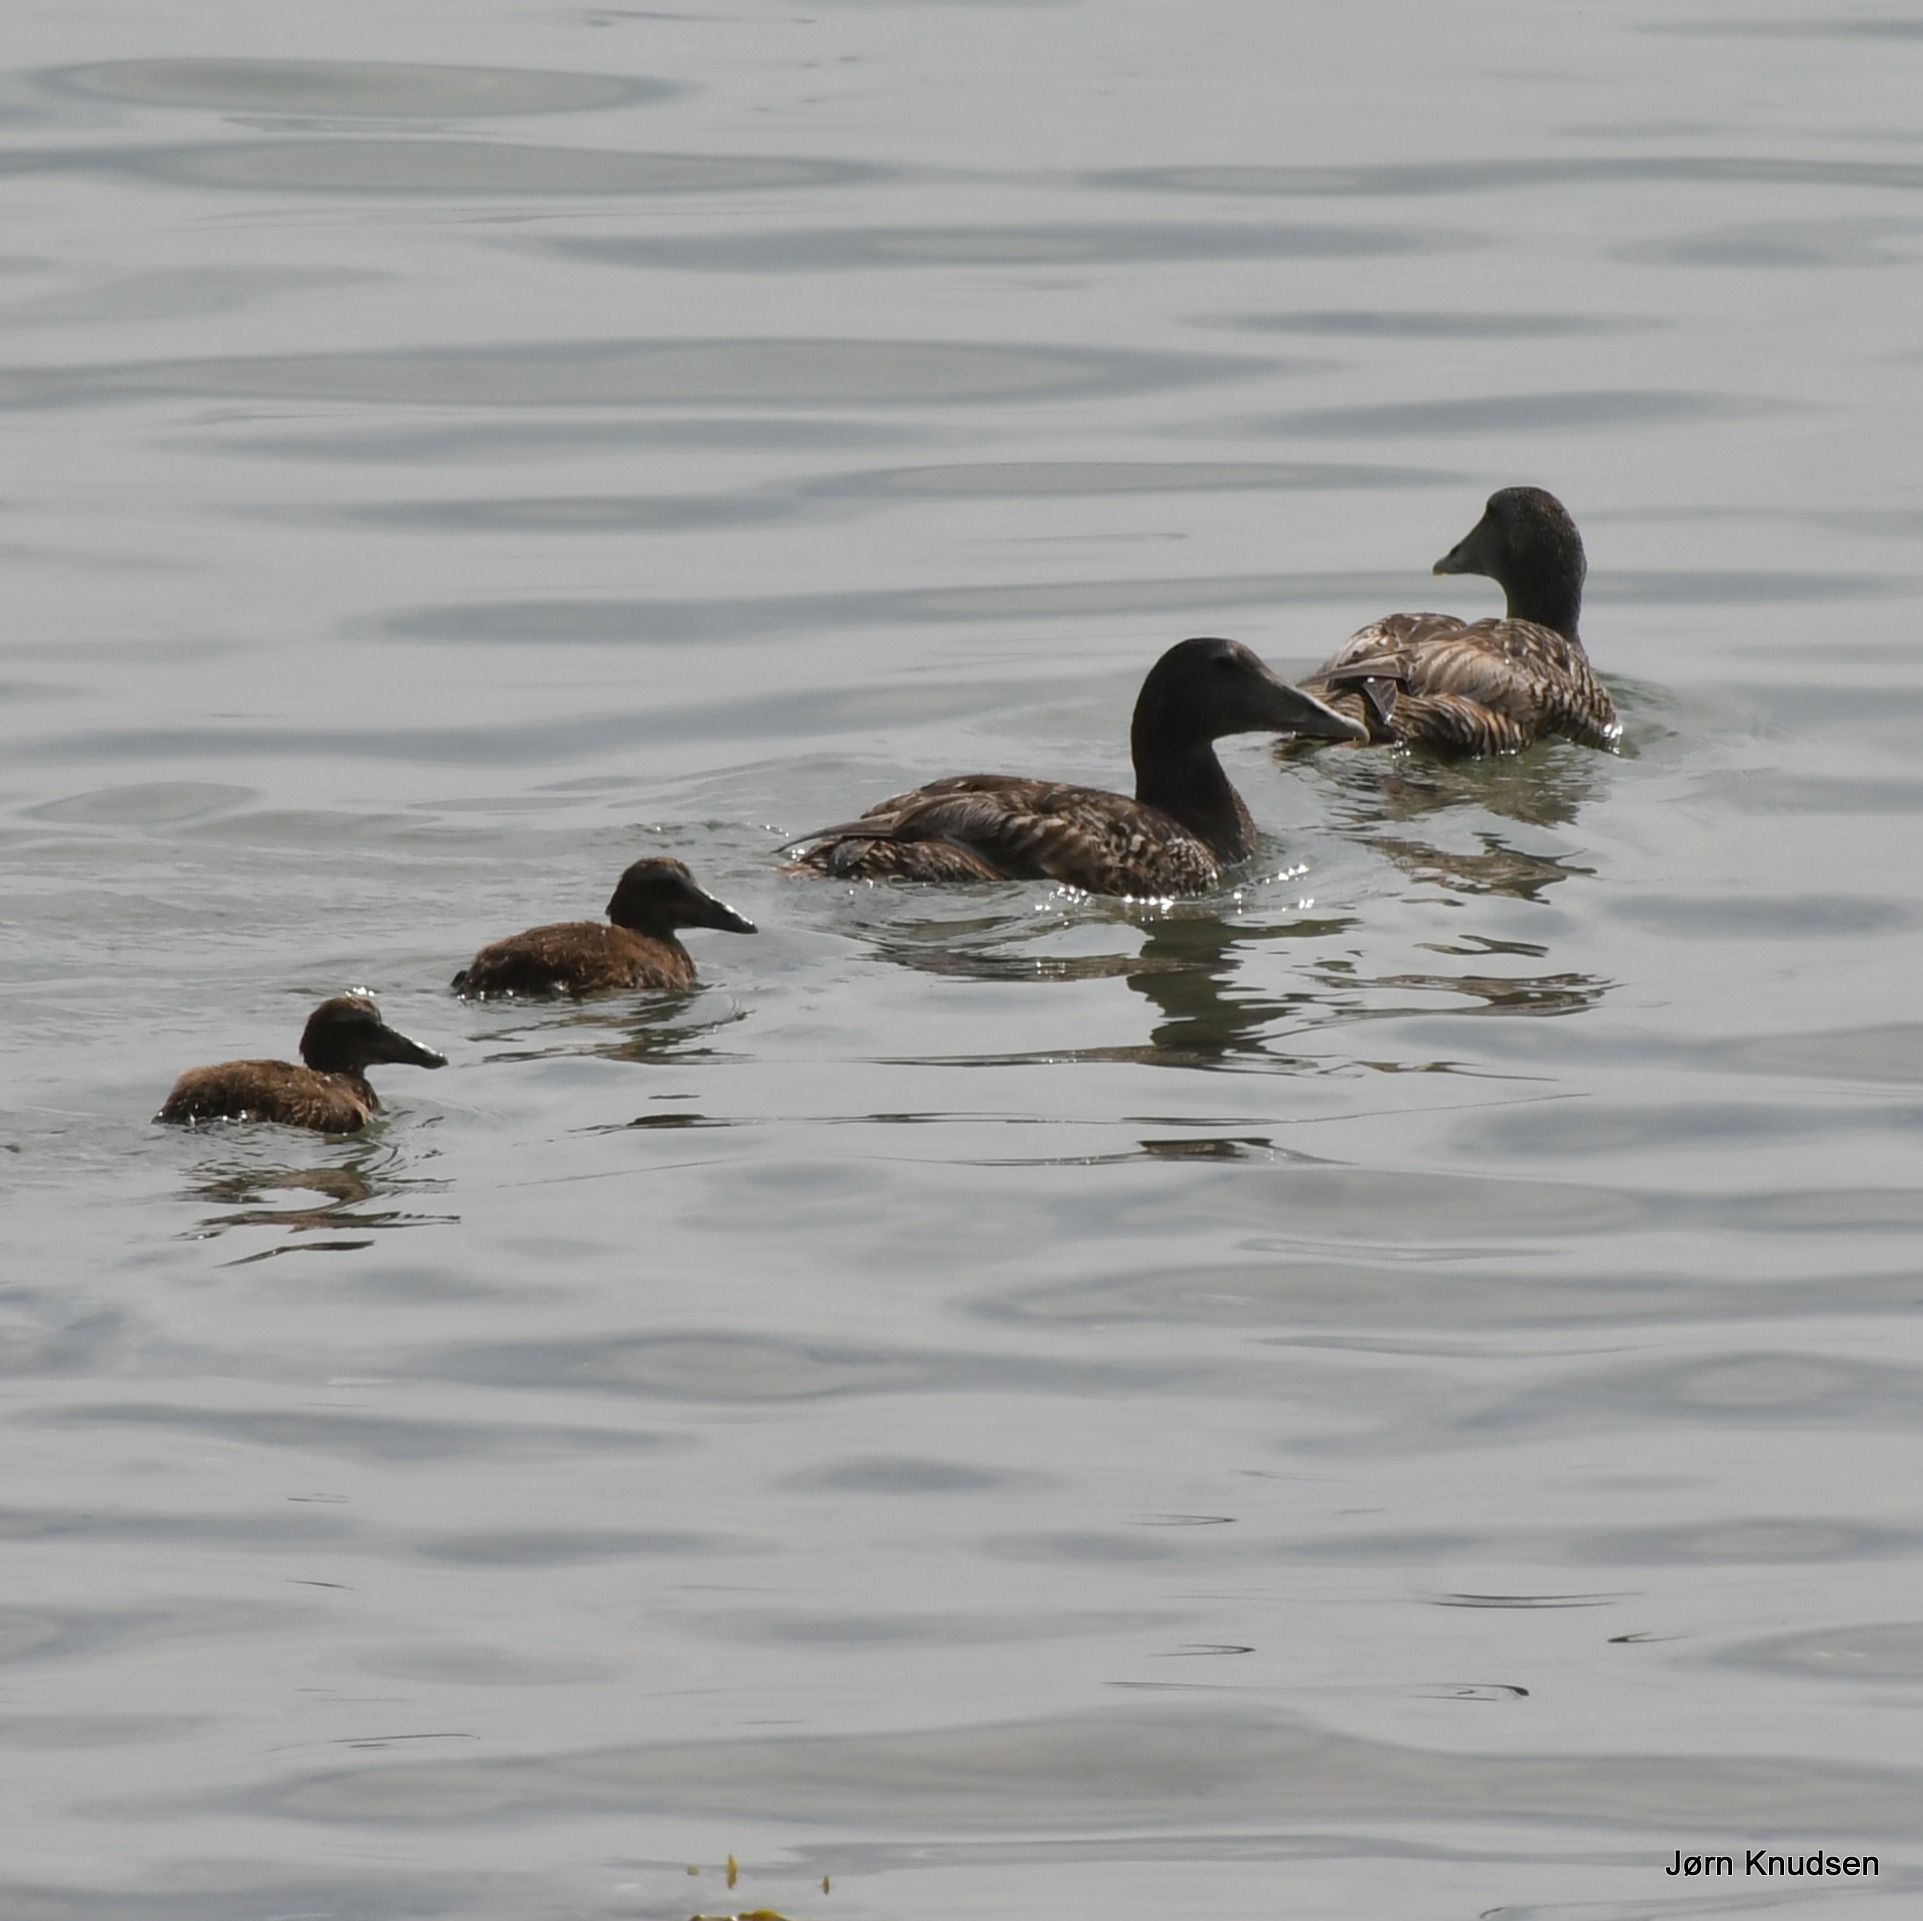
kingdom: Animalia
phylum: Chordata
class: Aves
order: Anseriformes
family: Anatidae
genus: Somateria
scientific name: Somateria mollissima
